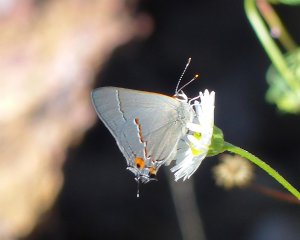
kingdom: Animalia
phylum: Arthropoda
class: Insecta
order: Lepidoptera
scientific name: Lepidoptera
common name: Butterflies
